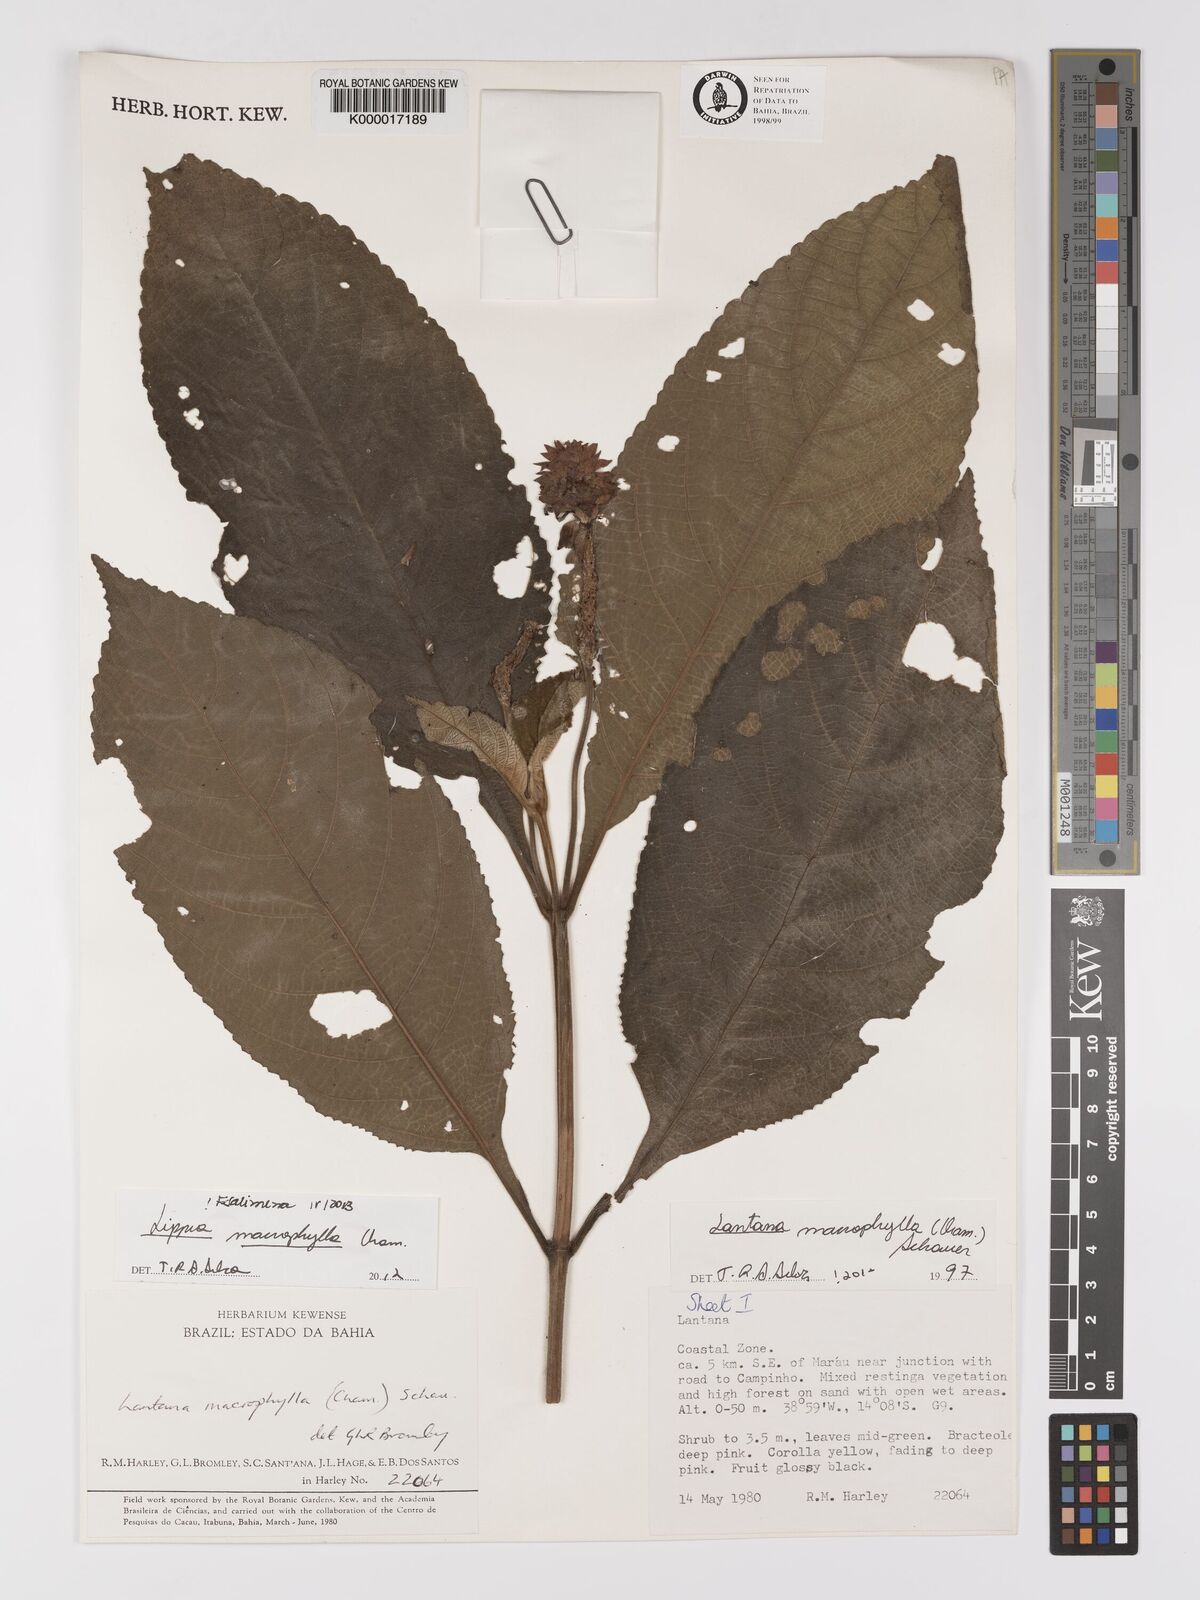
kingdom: Plantae
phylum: Tracheophyta
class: Magnoliopsida
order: Lamiales
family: Verbenaceae
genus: Lippia
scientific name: Lippia macrophylla
